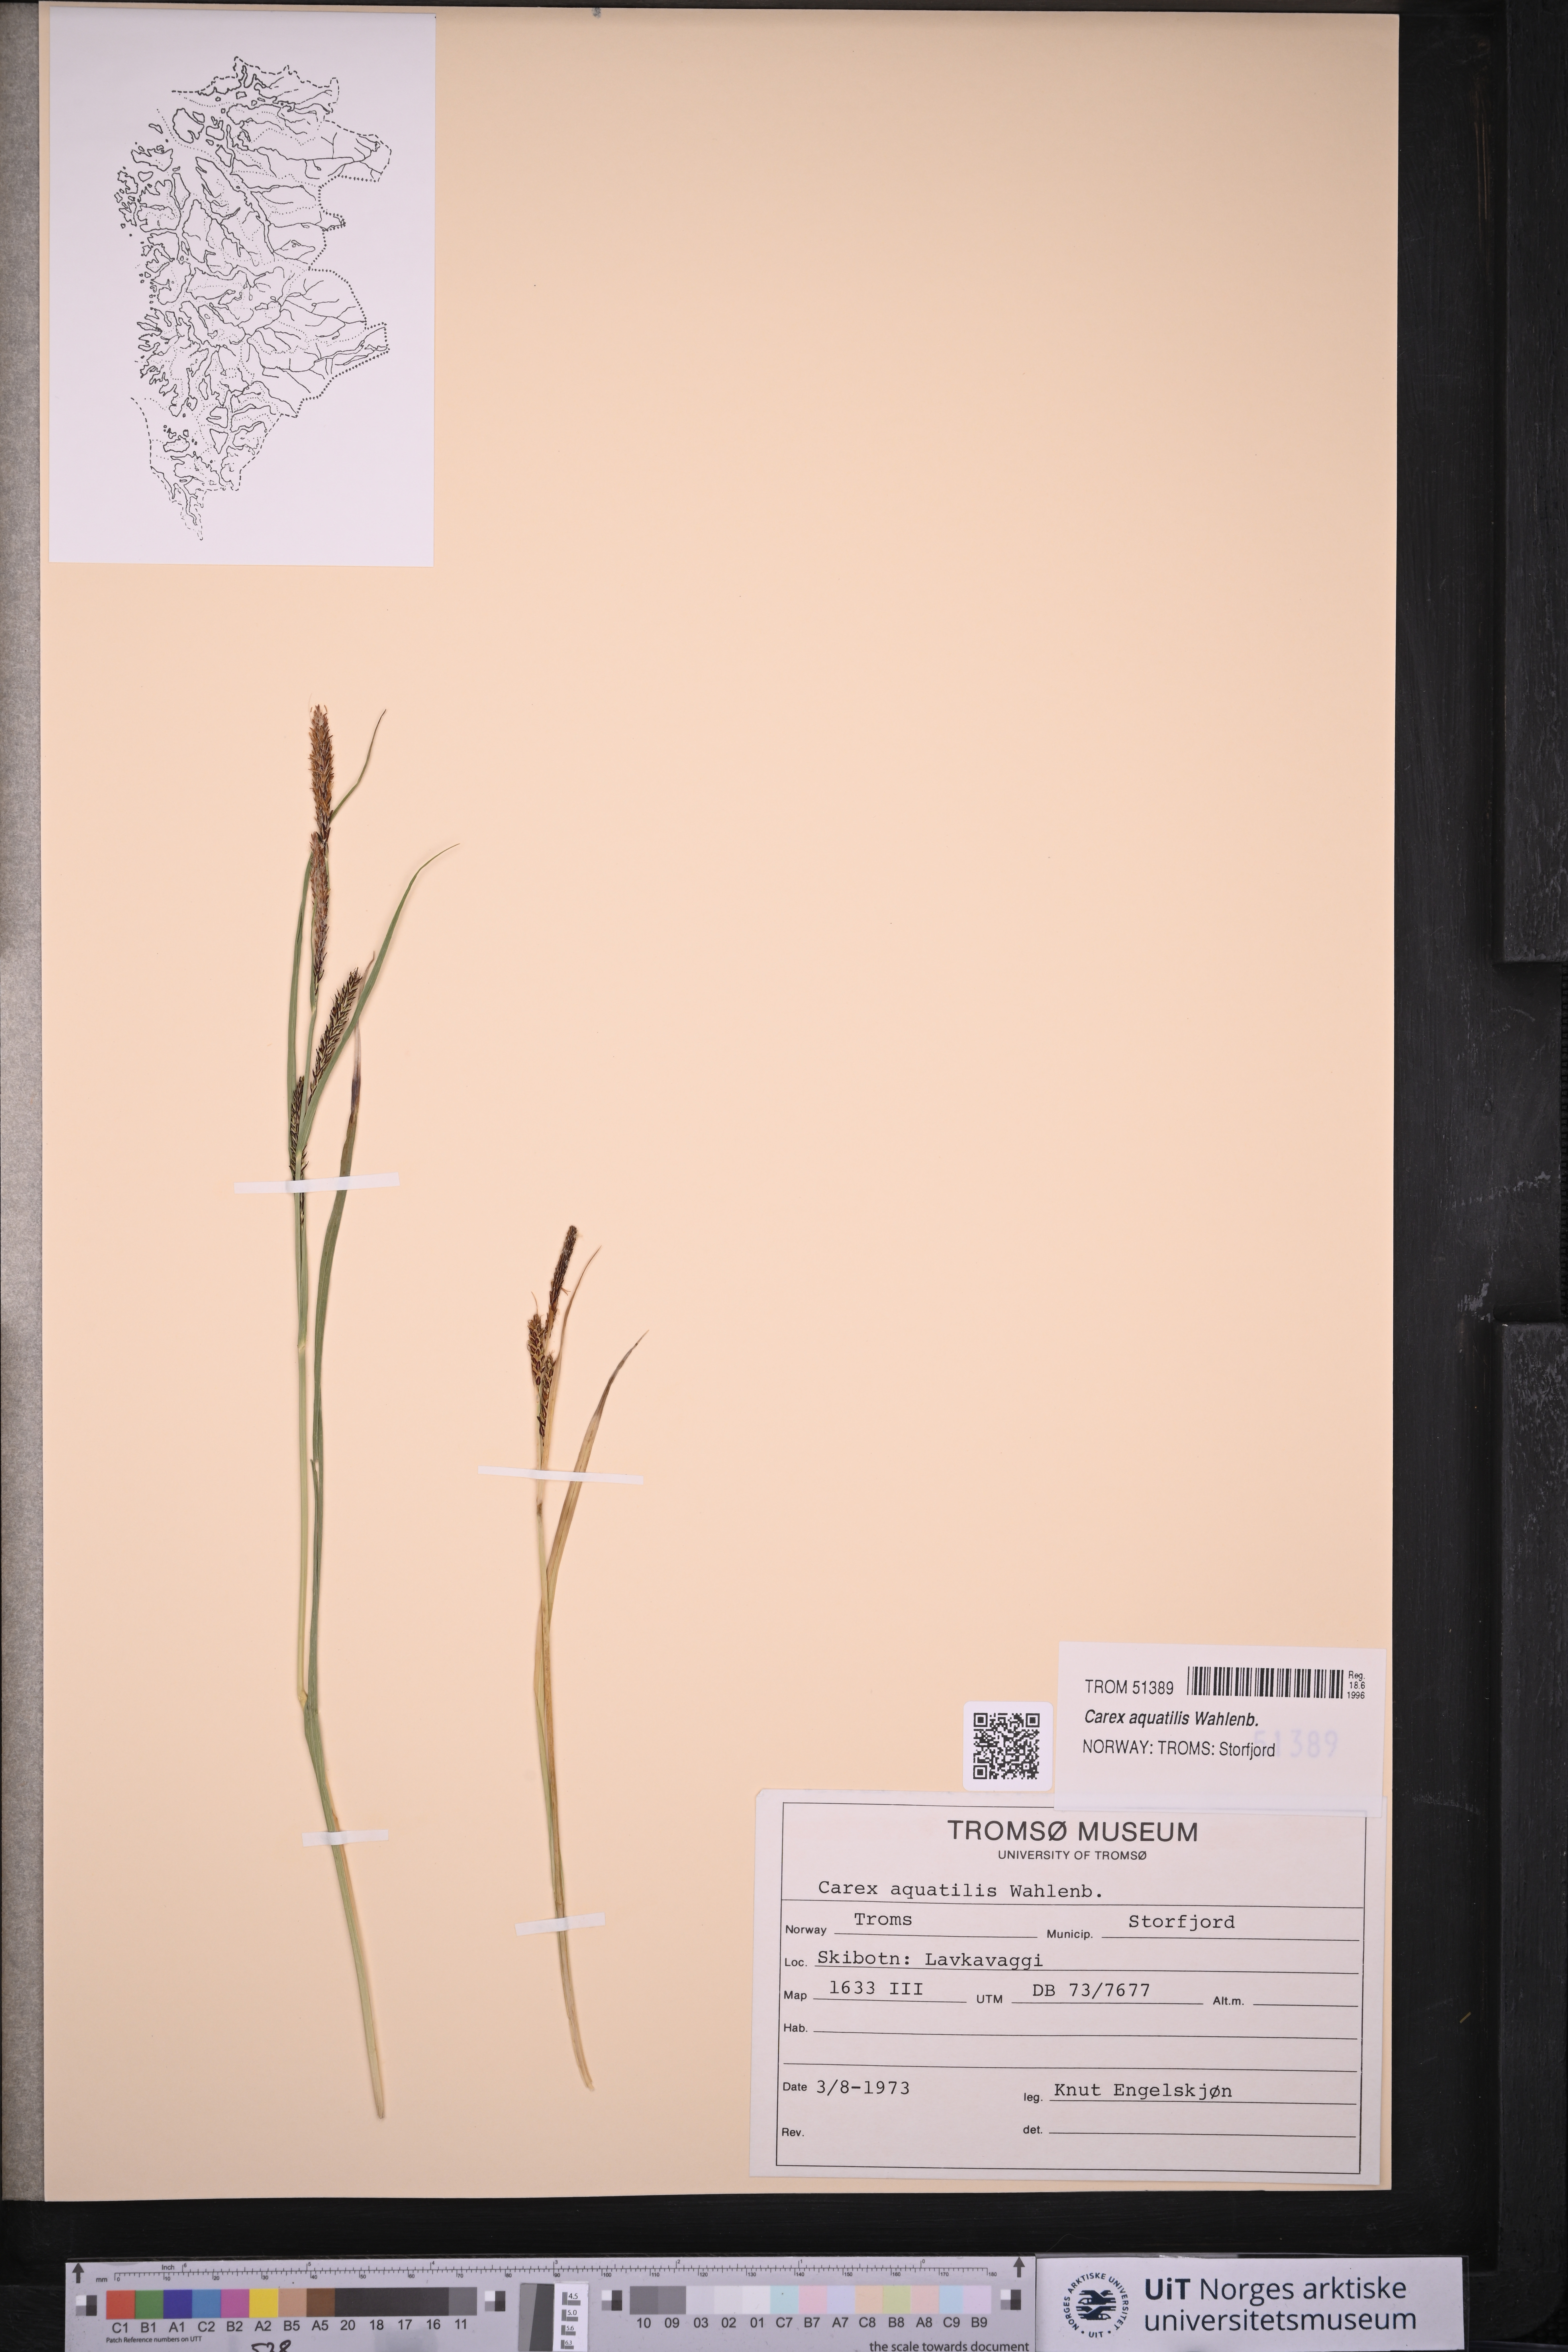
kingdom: Plantae
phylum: Tracheophyta
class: Liliopsida
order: Poales
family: Cyperaceae
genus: Carex
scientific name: Carex aquatilis
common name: Water sedge
